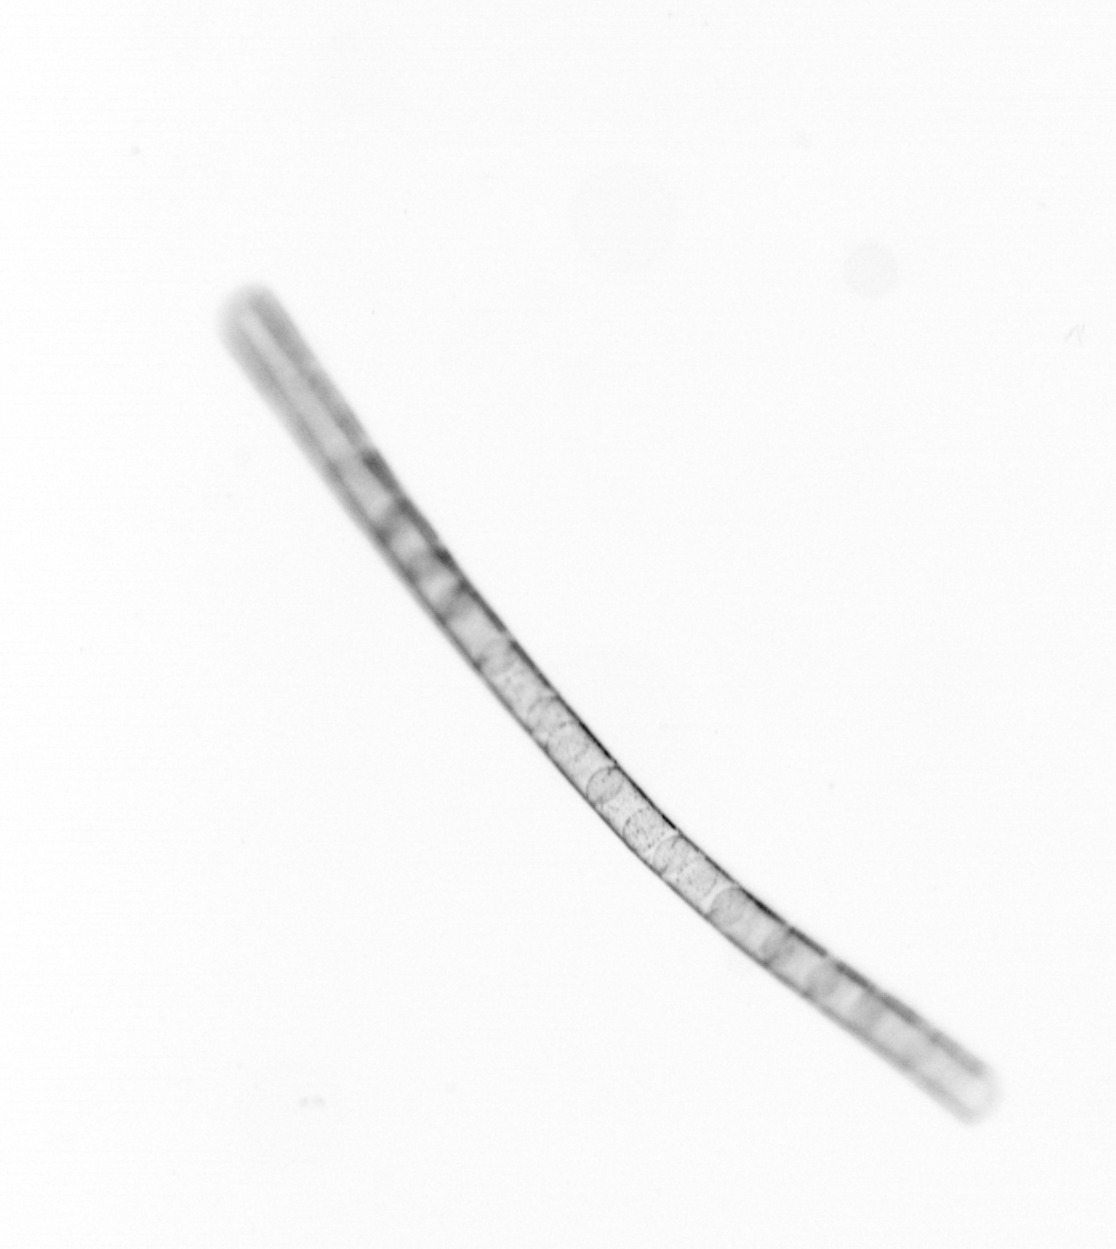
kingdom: Chromista
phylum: Ochrophyta
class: Bacillariophyceae
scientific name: Bacillariophyceae
